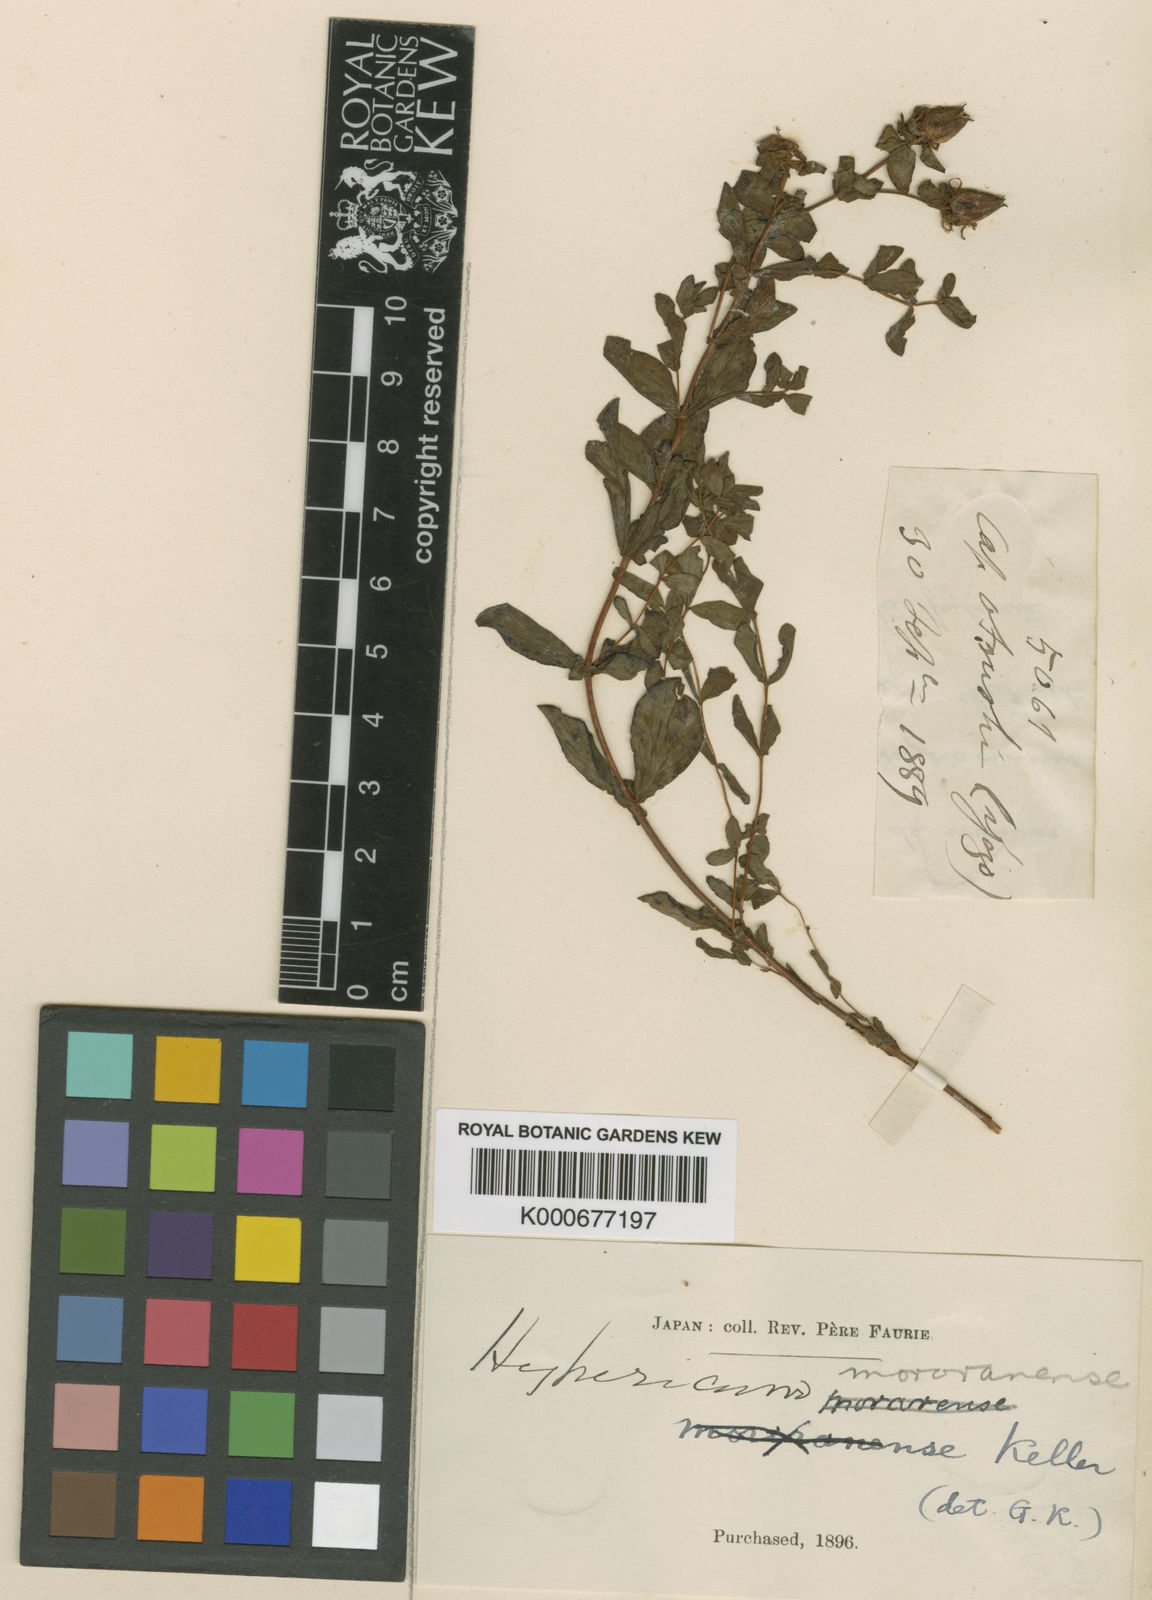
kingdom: Plantae
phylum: Tracheophyta
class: Magnoliopsida
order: Malpighiales
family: Hypericaceae
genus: Hypericum
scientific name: Hypericum yezoense
